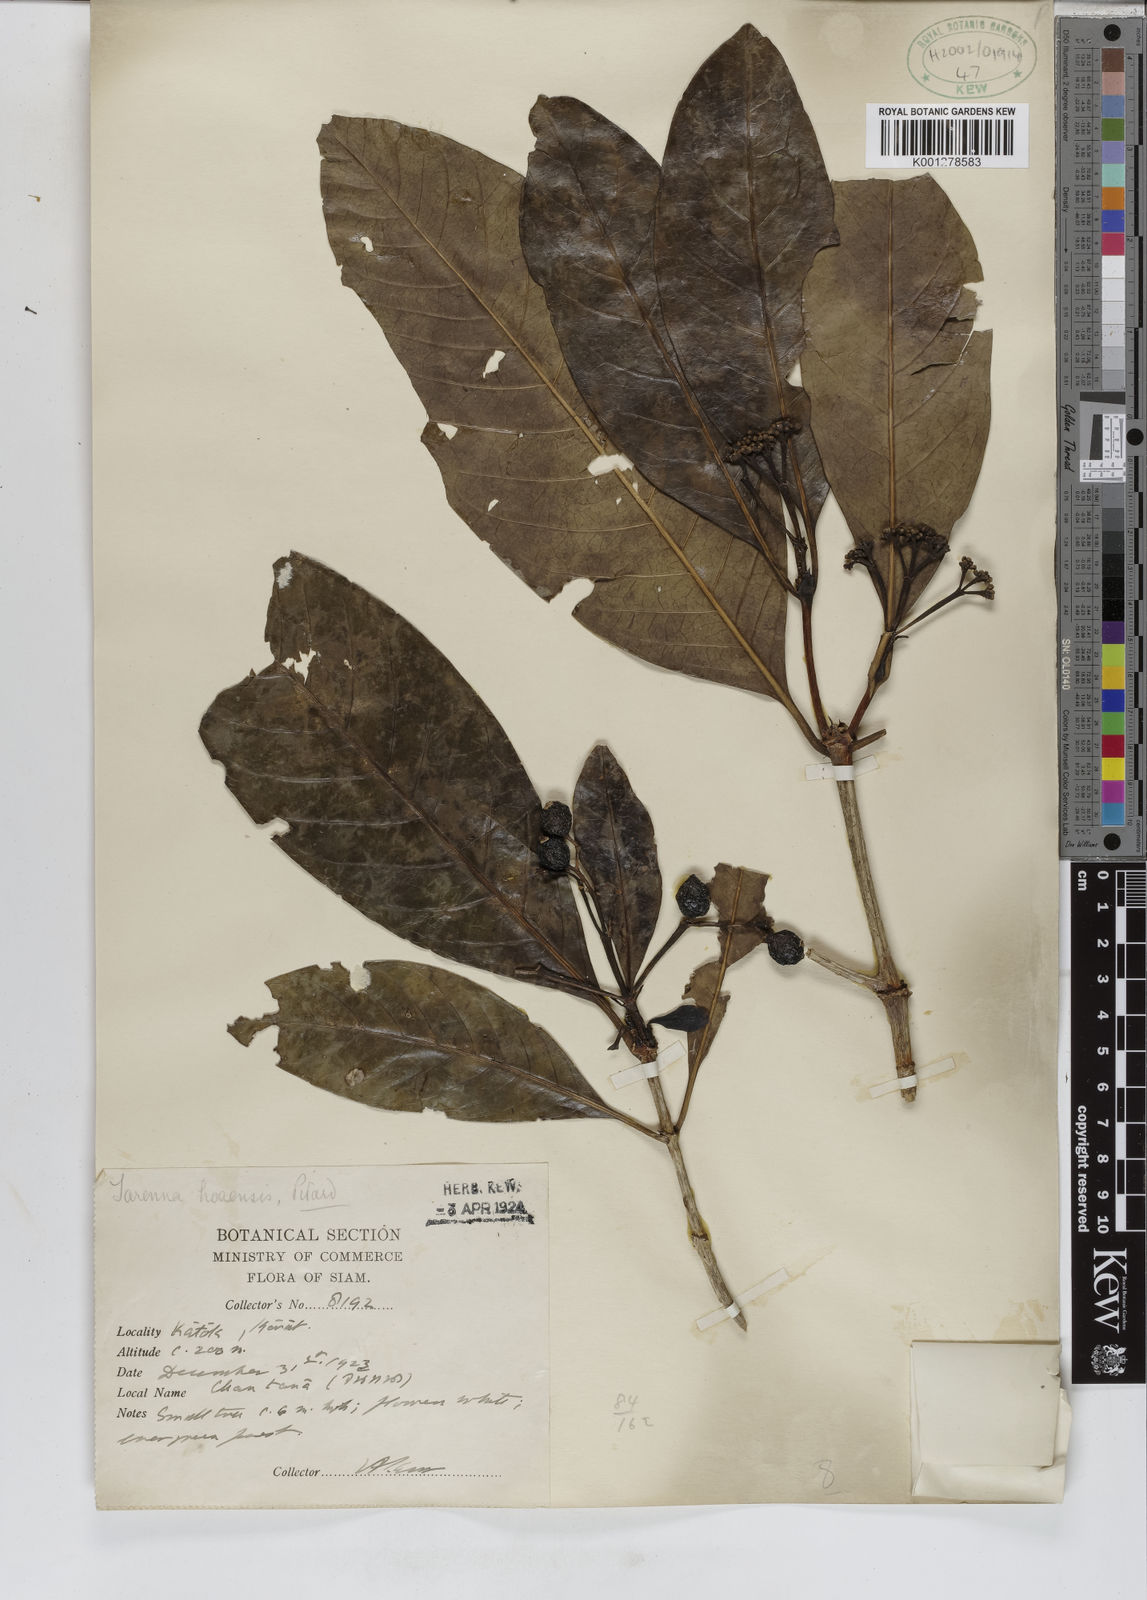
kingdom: Plantae
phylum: Tracheophyta
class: Magnoliopsida
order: Gentianales
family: Rubiaceae
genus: Tarenna
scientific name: Tarenna hoaensis
